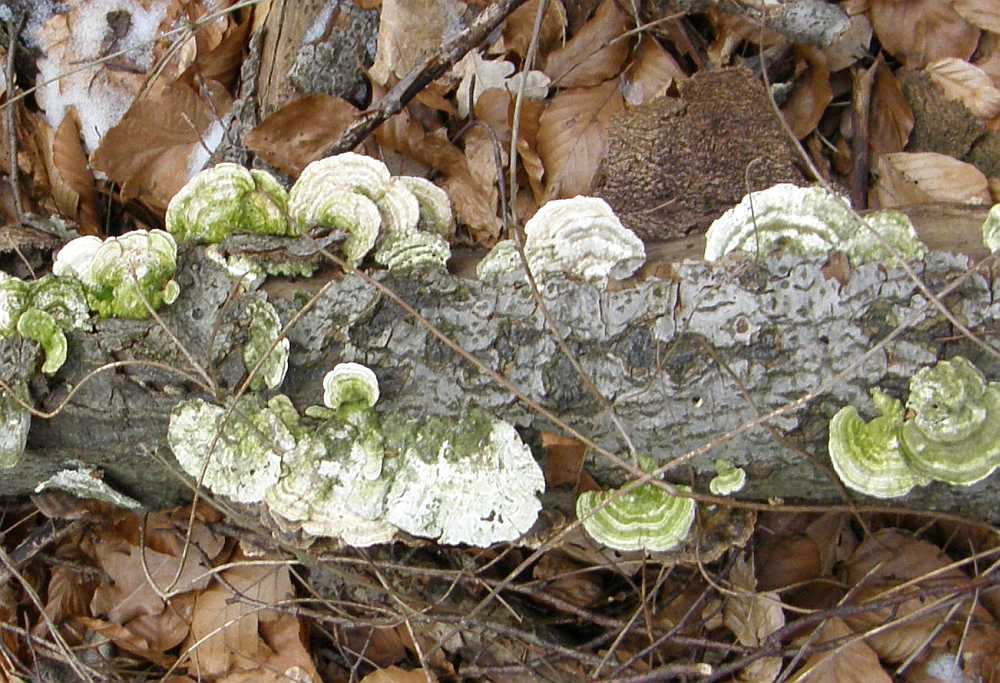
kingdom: Fungi
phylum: Basidiomycota
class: Agaricomycetes
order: Polyporales
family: Polyporaceae
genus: Trametes
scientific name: Trametes hirsuta
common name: håret læderporesvamp
